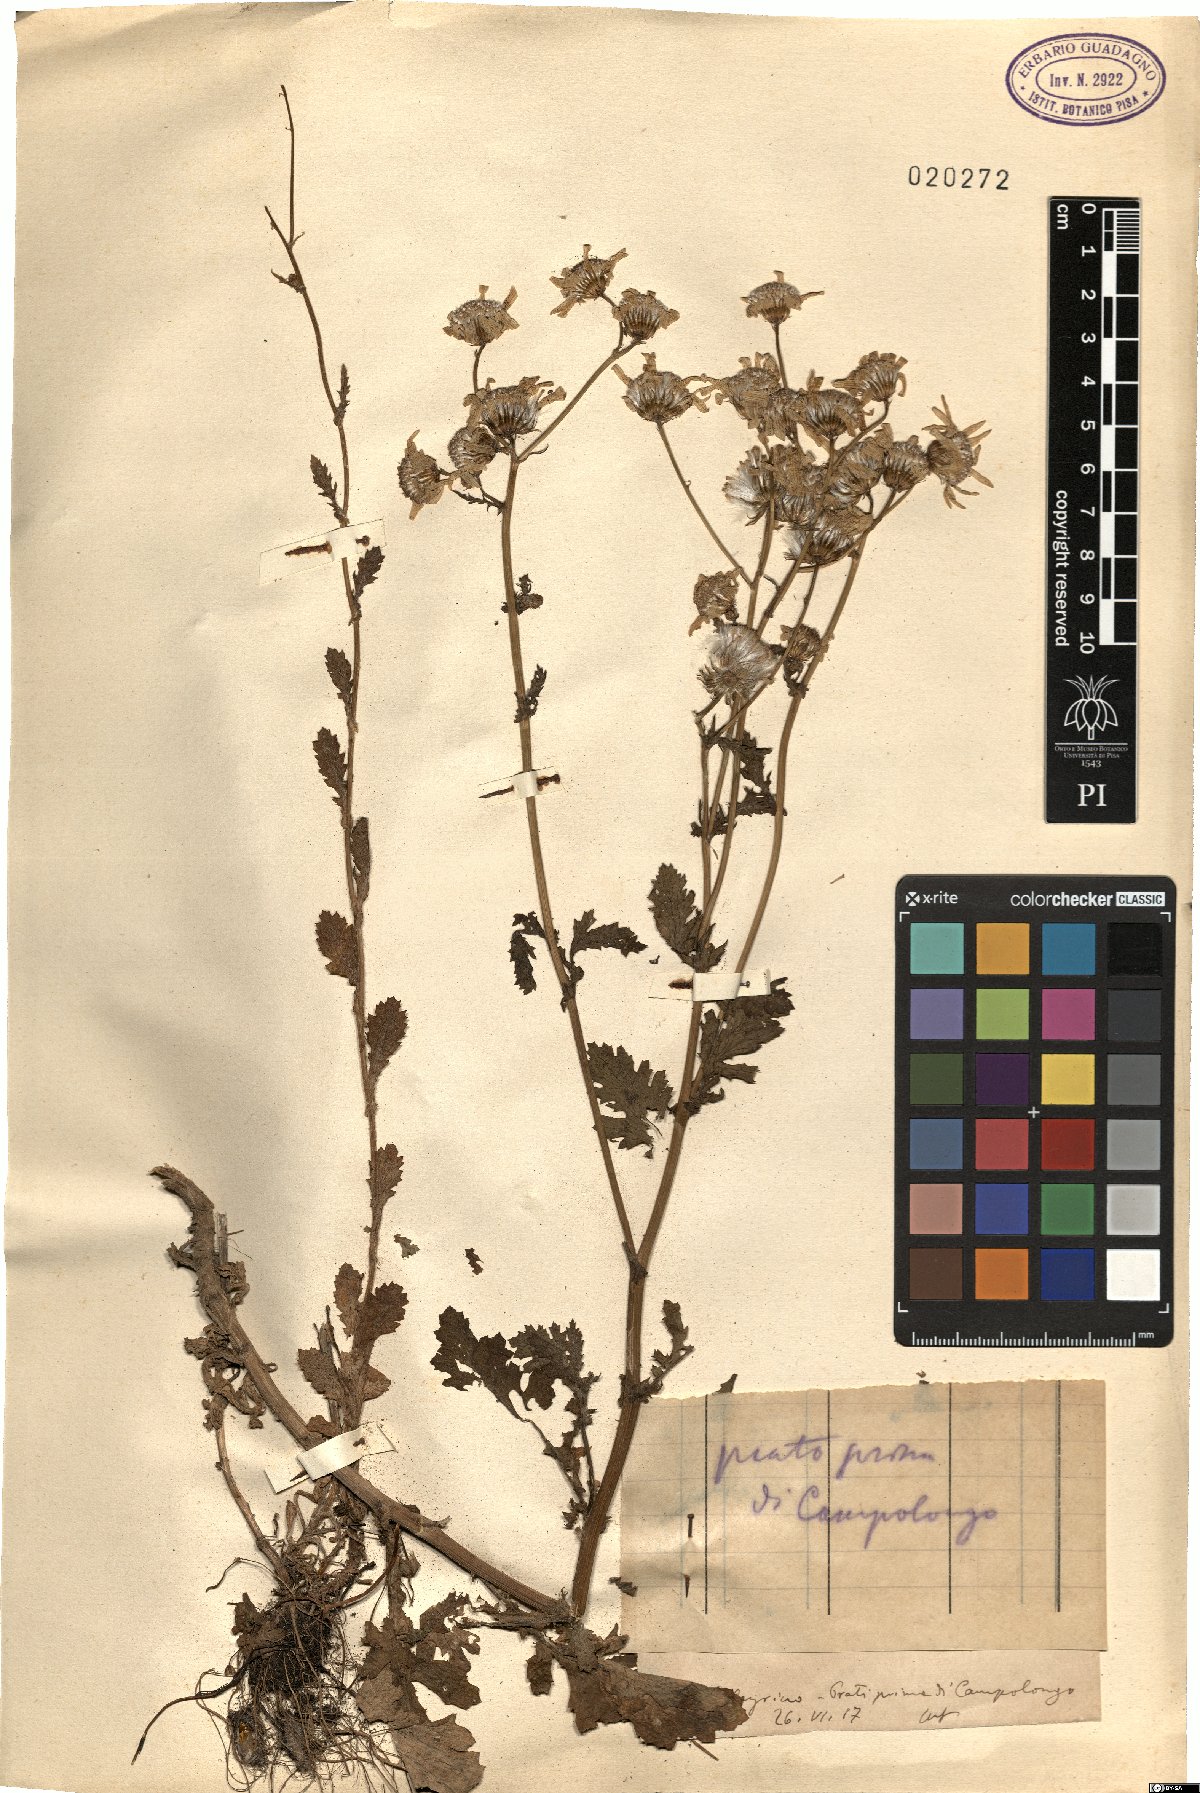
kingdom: Plantae
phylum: Tracheophyta
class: Magnoliopsida
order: Asterales
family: Asteraceae
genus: Senecio
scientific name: Senecio
